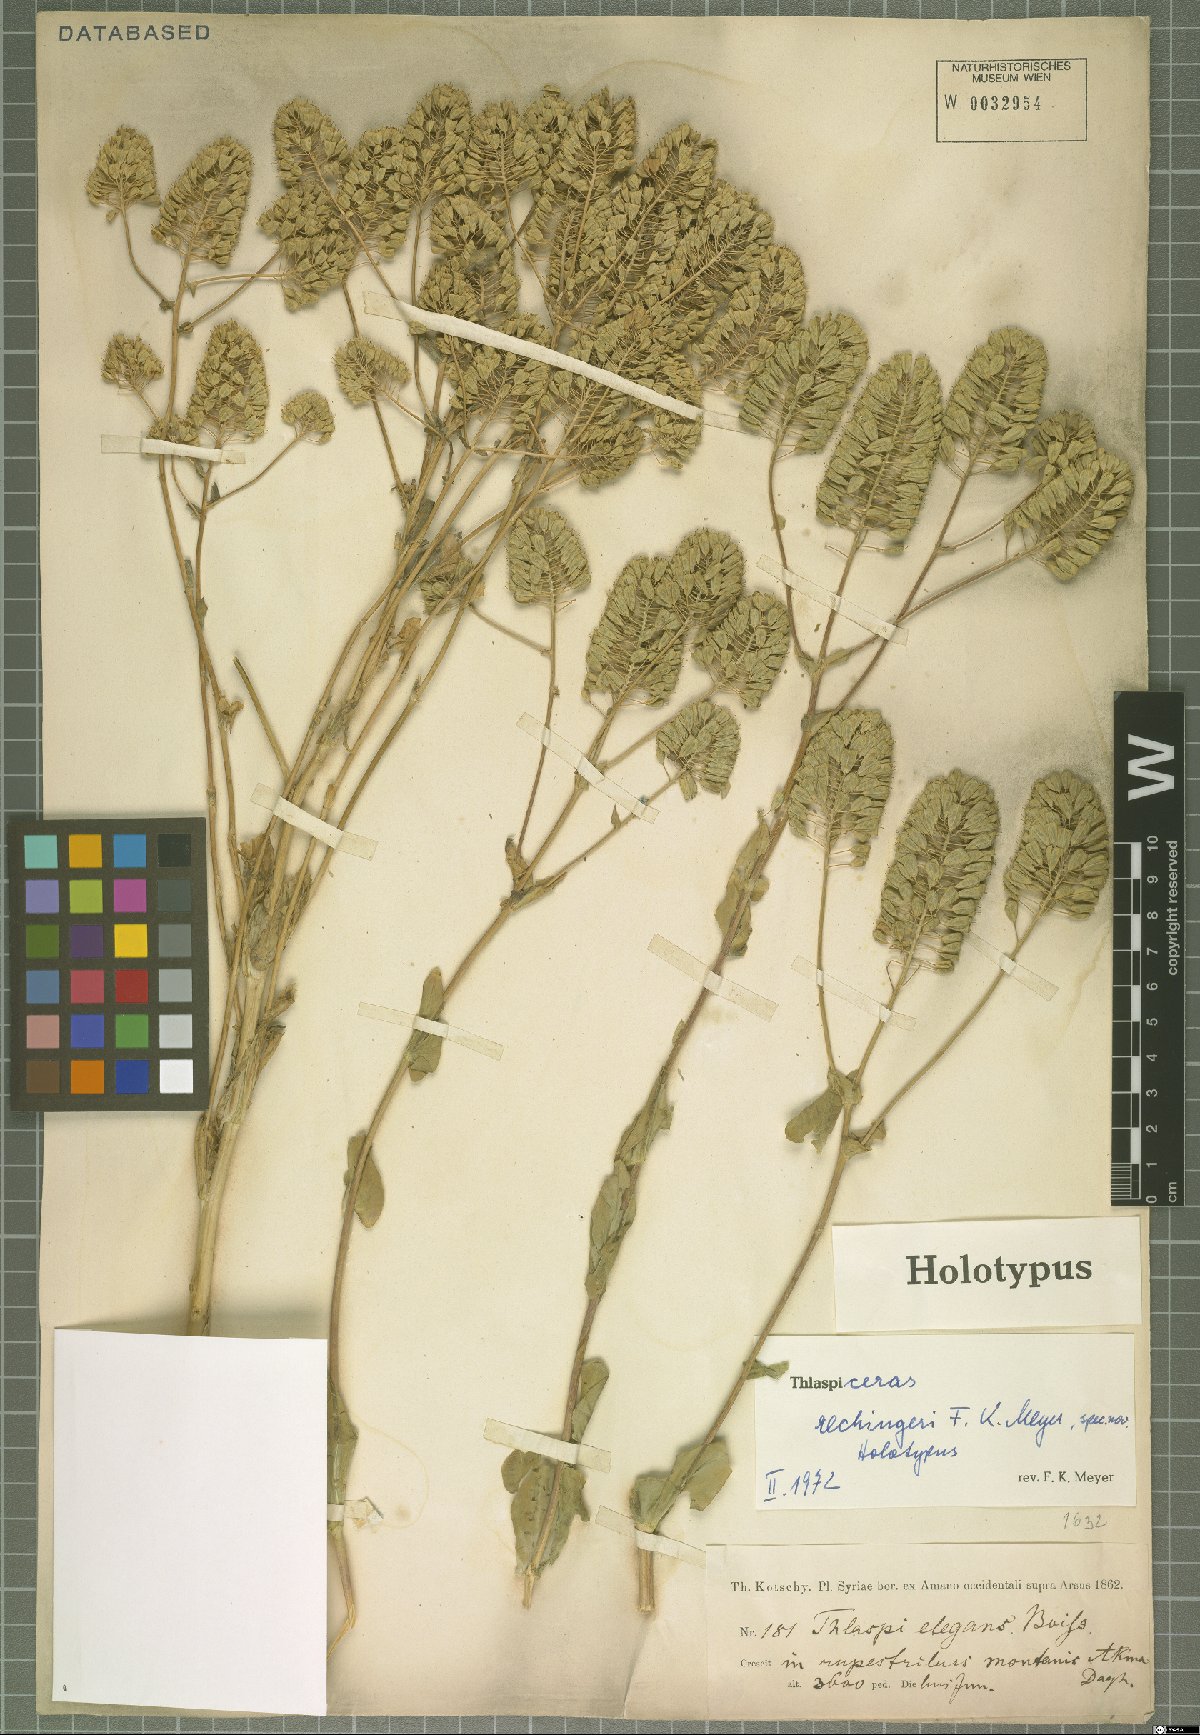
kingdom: Plantae
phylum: Tracheophyta
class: Magnoliopsida
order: Brassicales
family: Brassicaceae
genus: Noccaea
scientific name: Noccaea rechingeri
